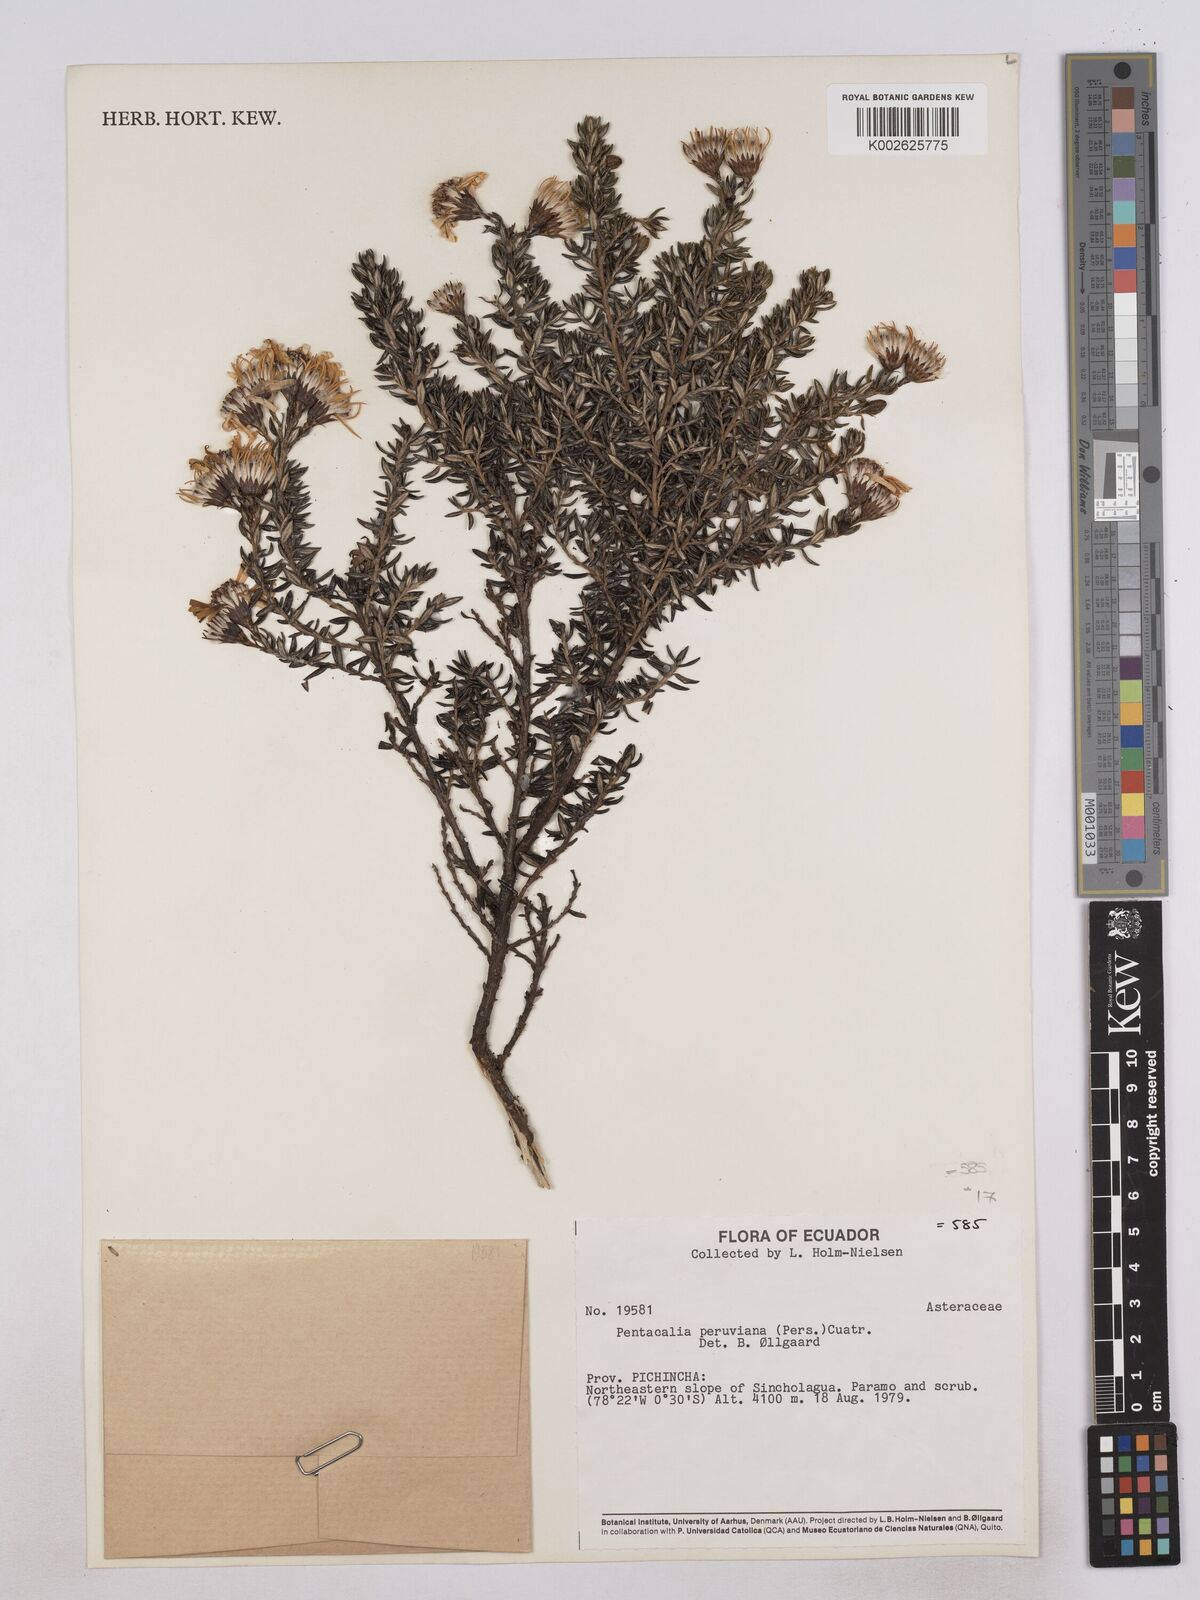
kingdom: Plantae
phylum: Tracheophyta
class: Magnoliopsida
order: Asterales
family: Asteraceae
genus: Monticalia
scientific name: Monticalia peruviana
